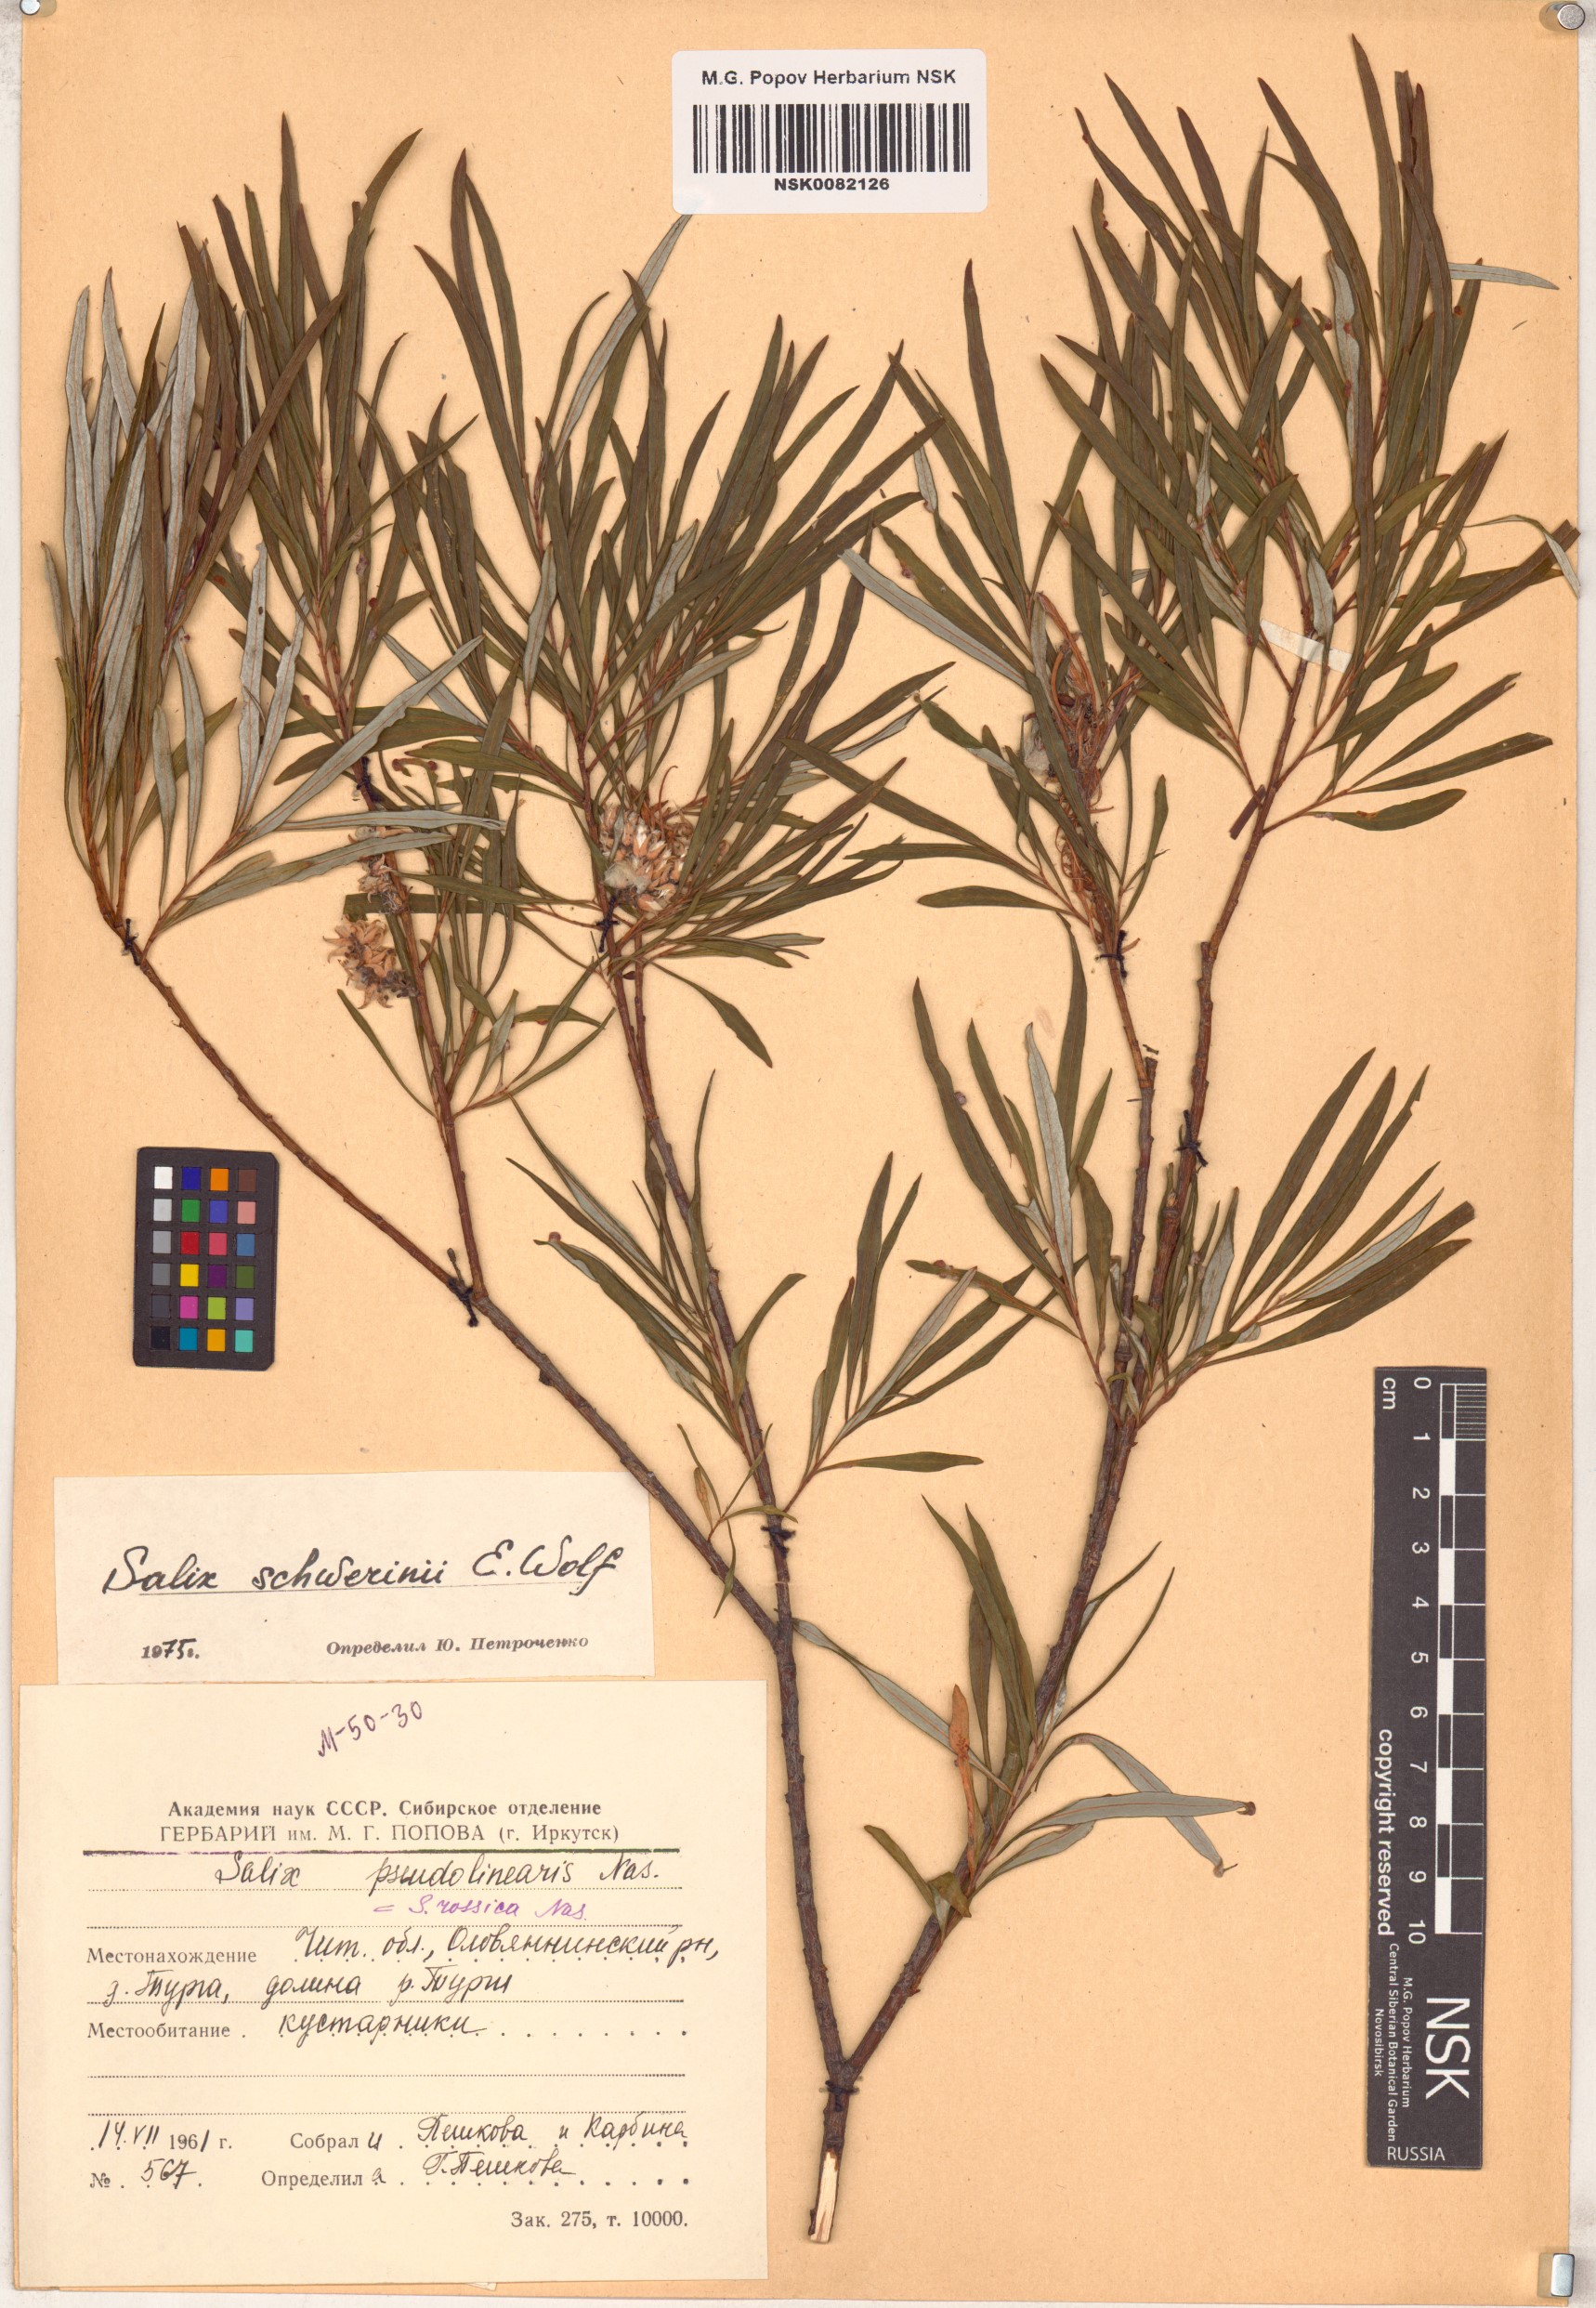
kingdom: Plantae
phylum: Tracheophyta
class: Magnoliopsida
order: Malpighiales
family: Salicaceae
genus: Salix
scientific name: Salix schwerinii
